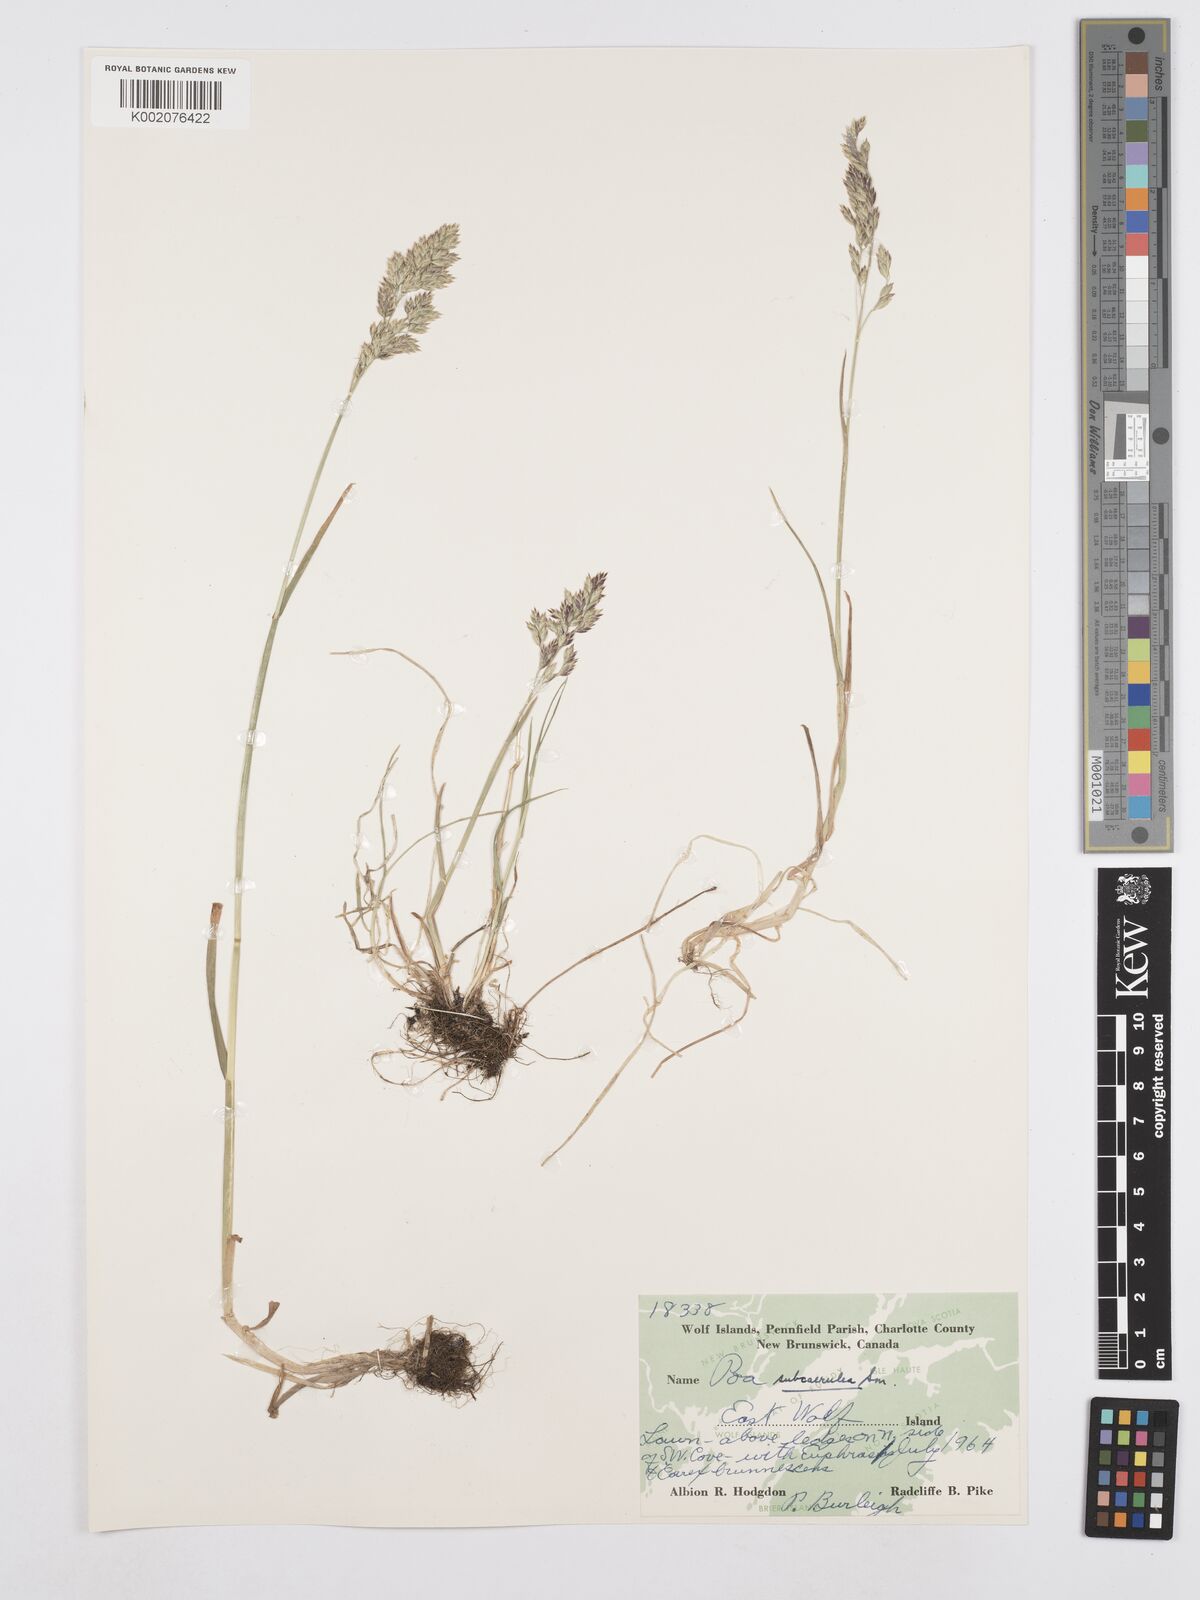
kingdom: Plantae
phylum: Tracheophyta
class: Liliopsida
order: Poales
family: Poaceae
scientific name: Poaceae
